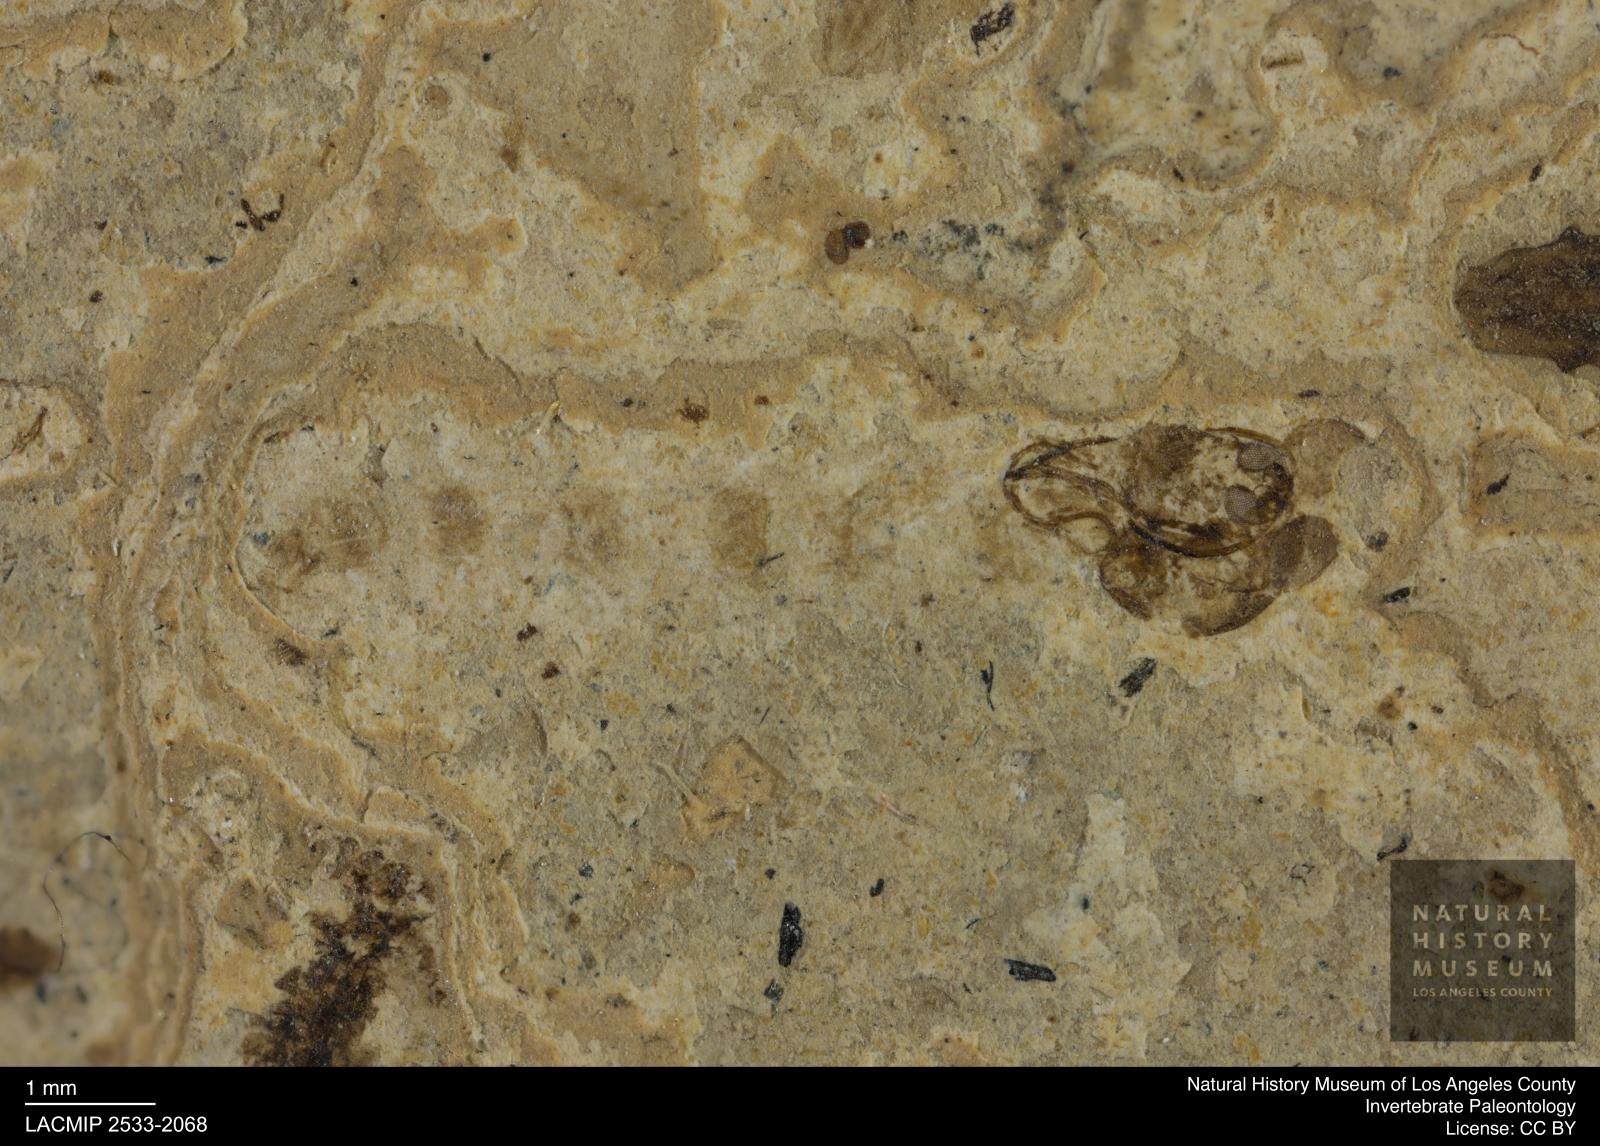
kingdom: Animalia
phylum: Arthropoda
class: Insecta
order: Diptera
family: Chironomidae
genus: Pelopiina
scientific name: Pelopiina
